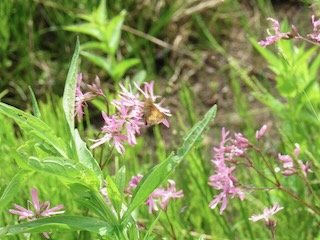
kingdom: Animalia
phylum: Arthropoda
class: Insecta
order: Lepidoptera
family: Hesperiidae
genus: Lon
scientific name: Lon hobomok
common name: Hobomok Skipper
